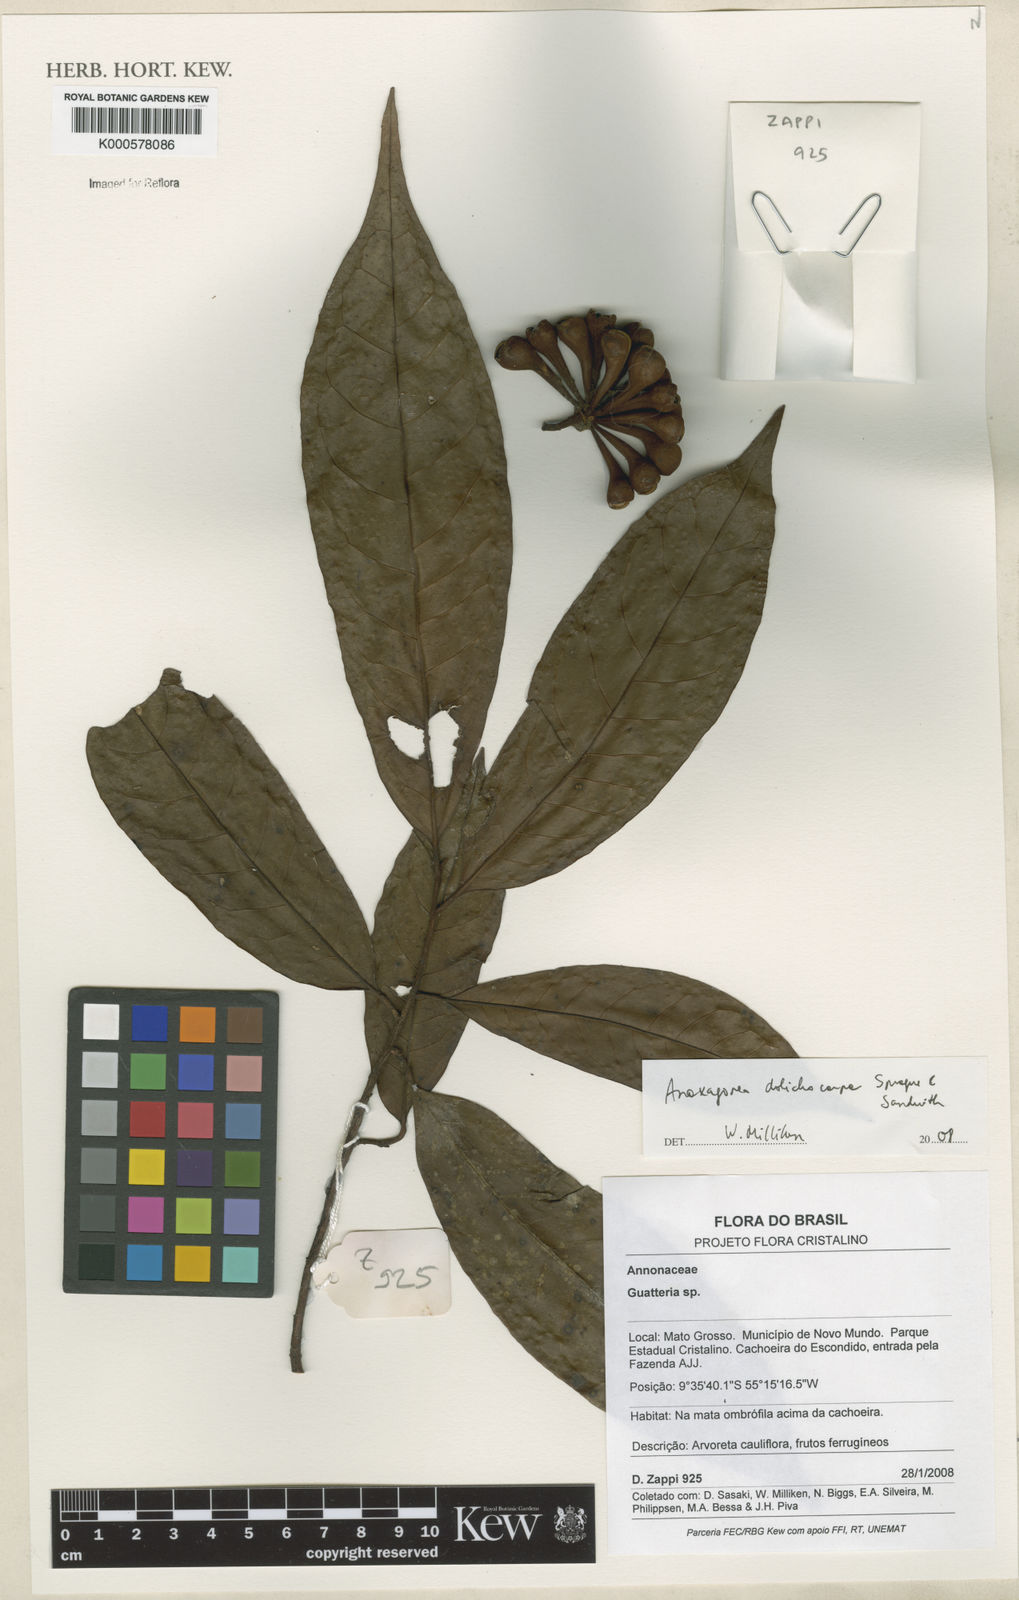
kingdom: Plantae
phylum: Tracheophyta
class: Magnoliopsida
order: Magnoliales
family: Annonaceae
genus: Anaxagorea
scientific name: Anaxagorea dolichocarpa
